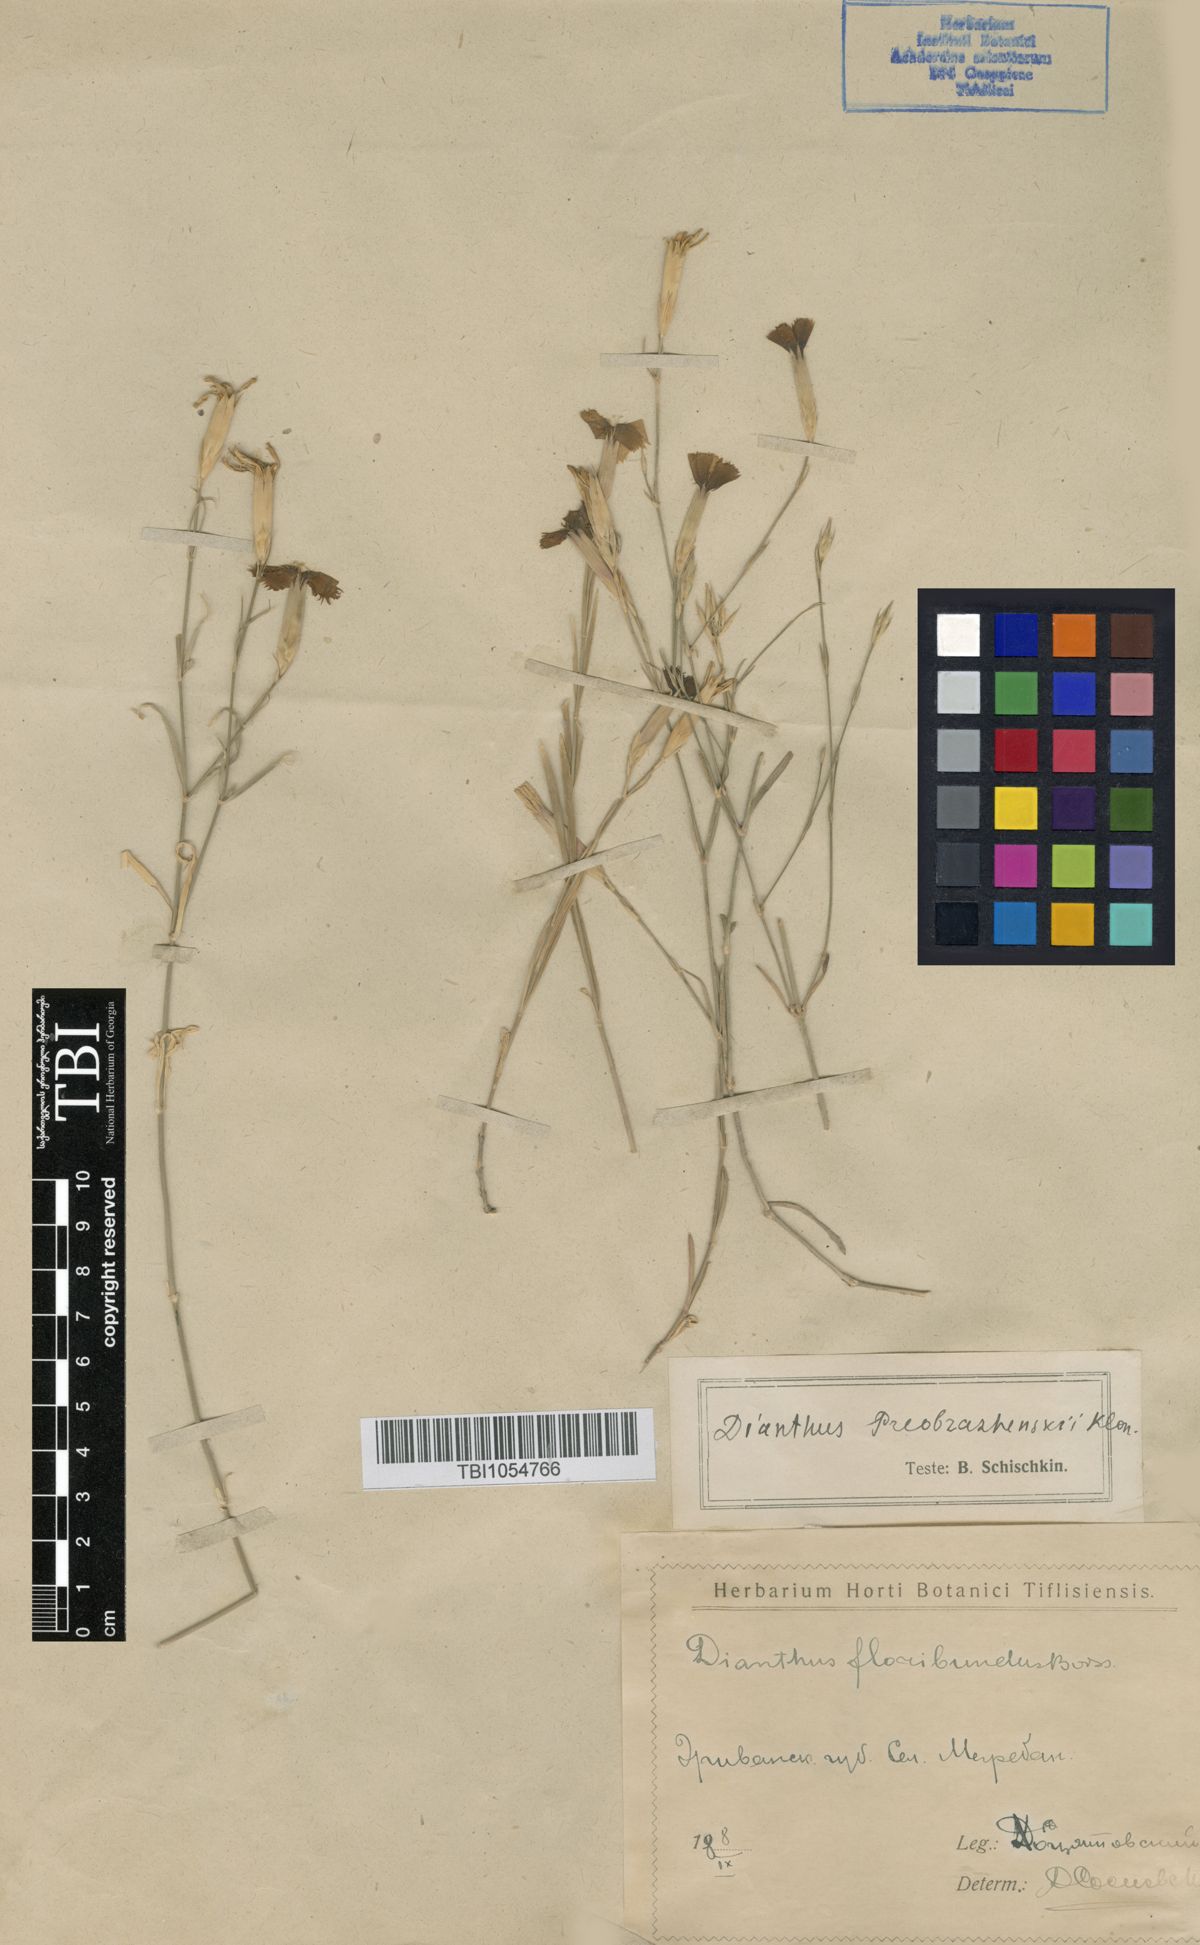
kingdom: Plantae
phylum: Tracheophyta
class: Magnoliopsida
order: Caryophyllales
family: Caryophyllaceae
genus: Dianthus
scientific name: Dianthus bicolor
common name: Bicolour pink
